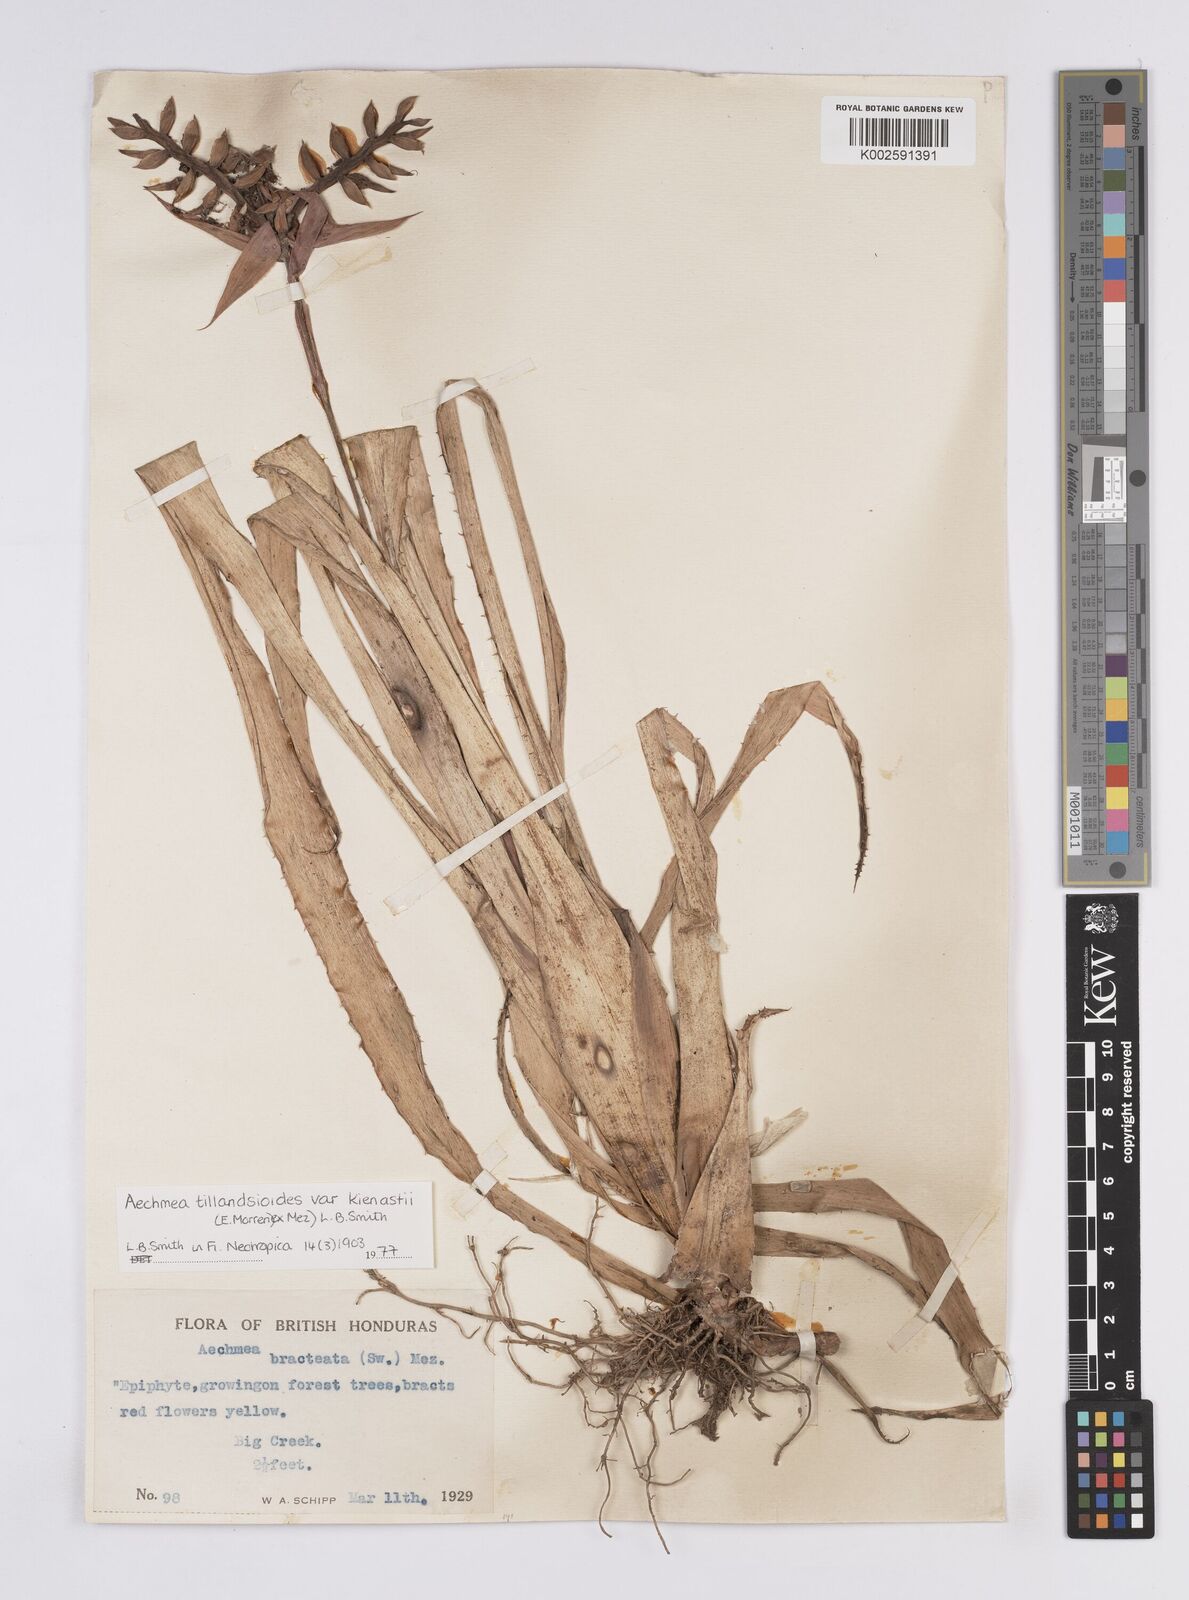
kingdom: Plantae
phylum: Tracheophyta
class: Liliopsida
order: Poales
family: Bromeliaceae
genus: Aechmea
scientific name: Aechmea tillandsioides
